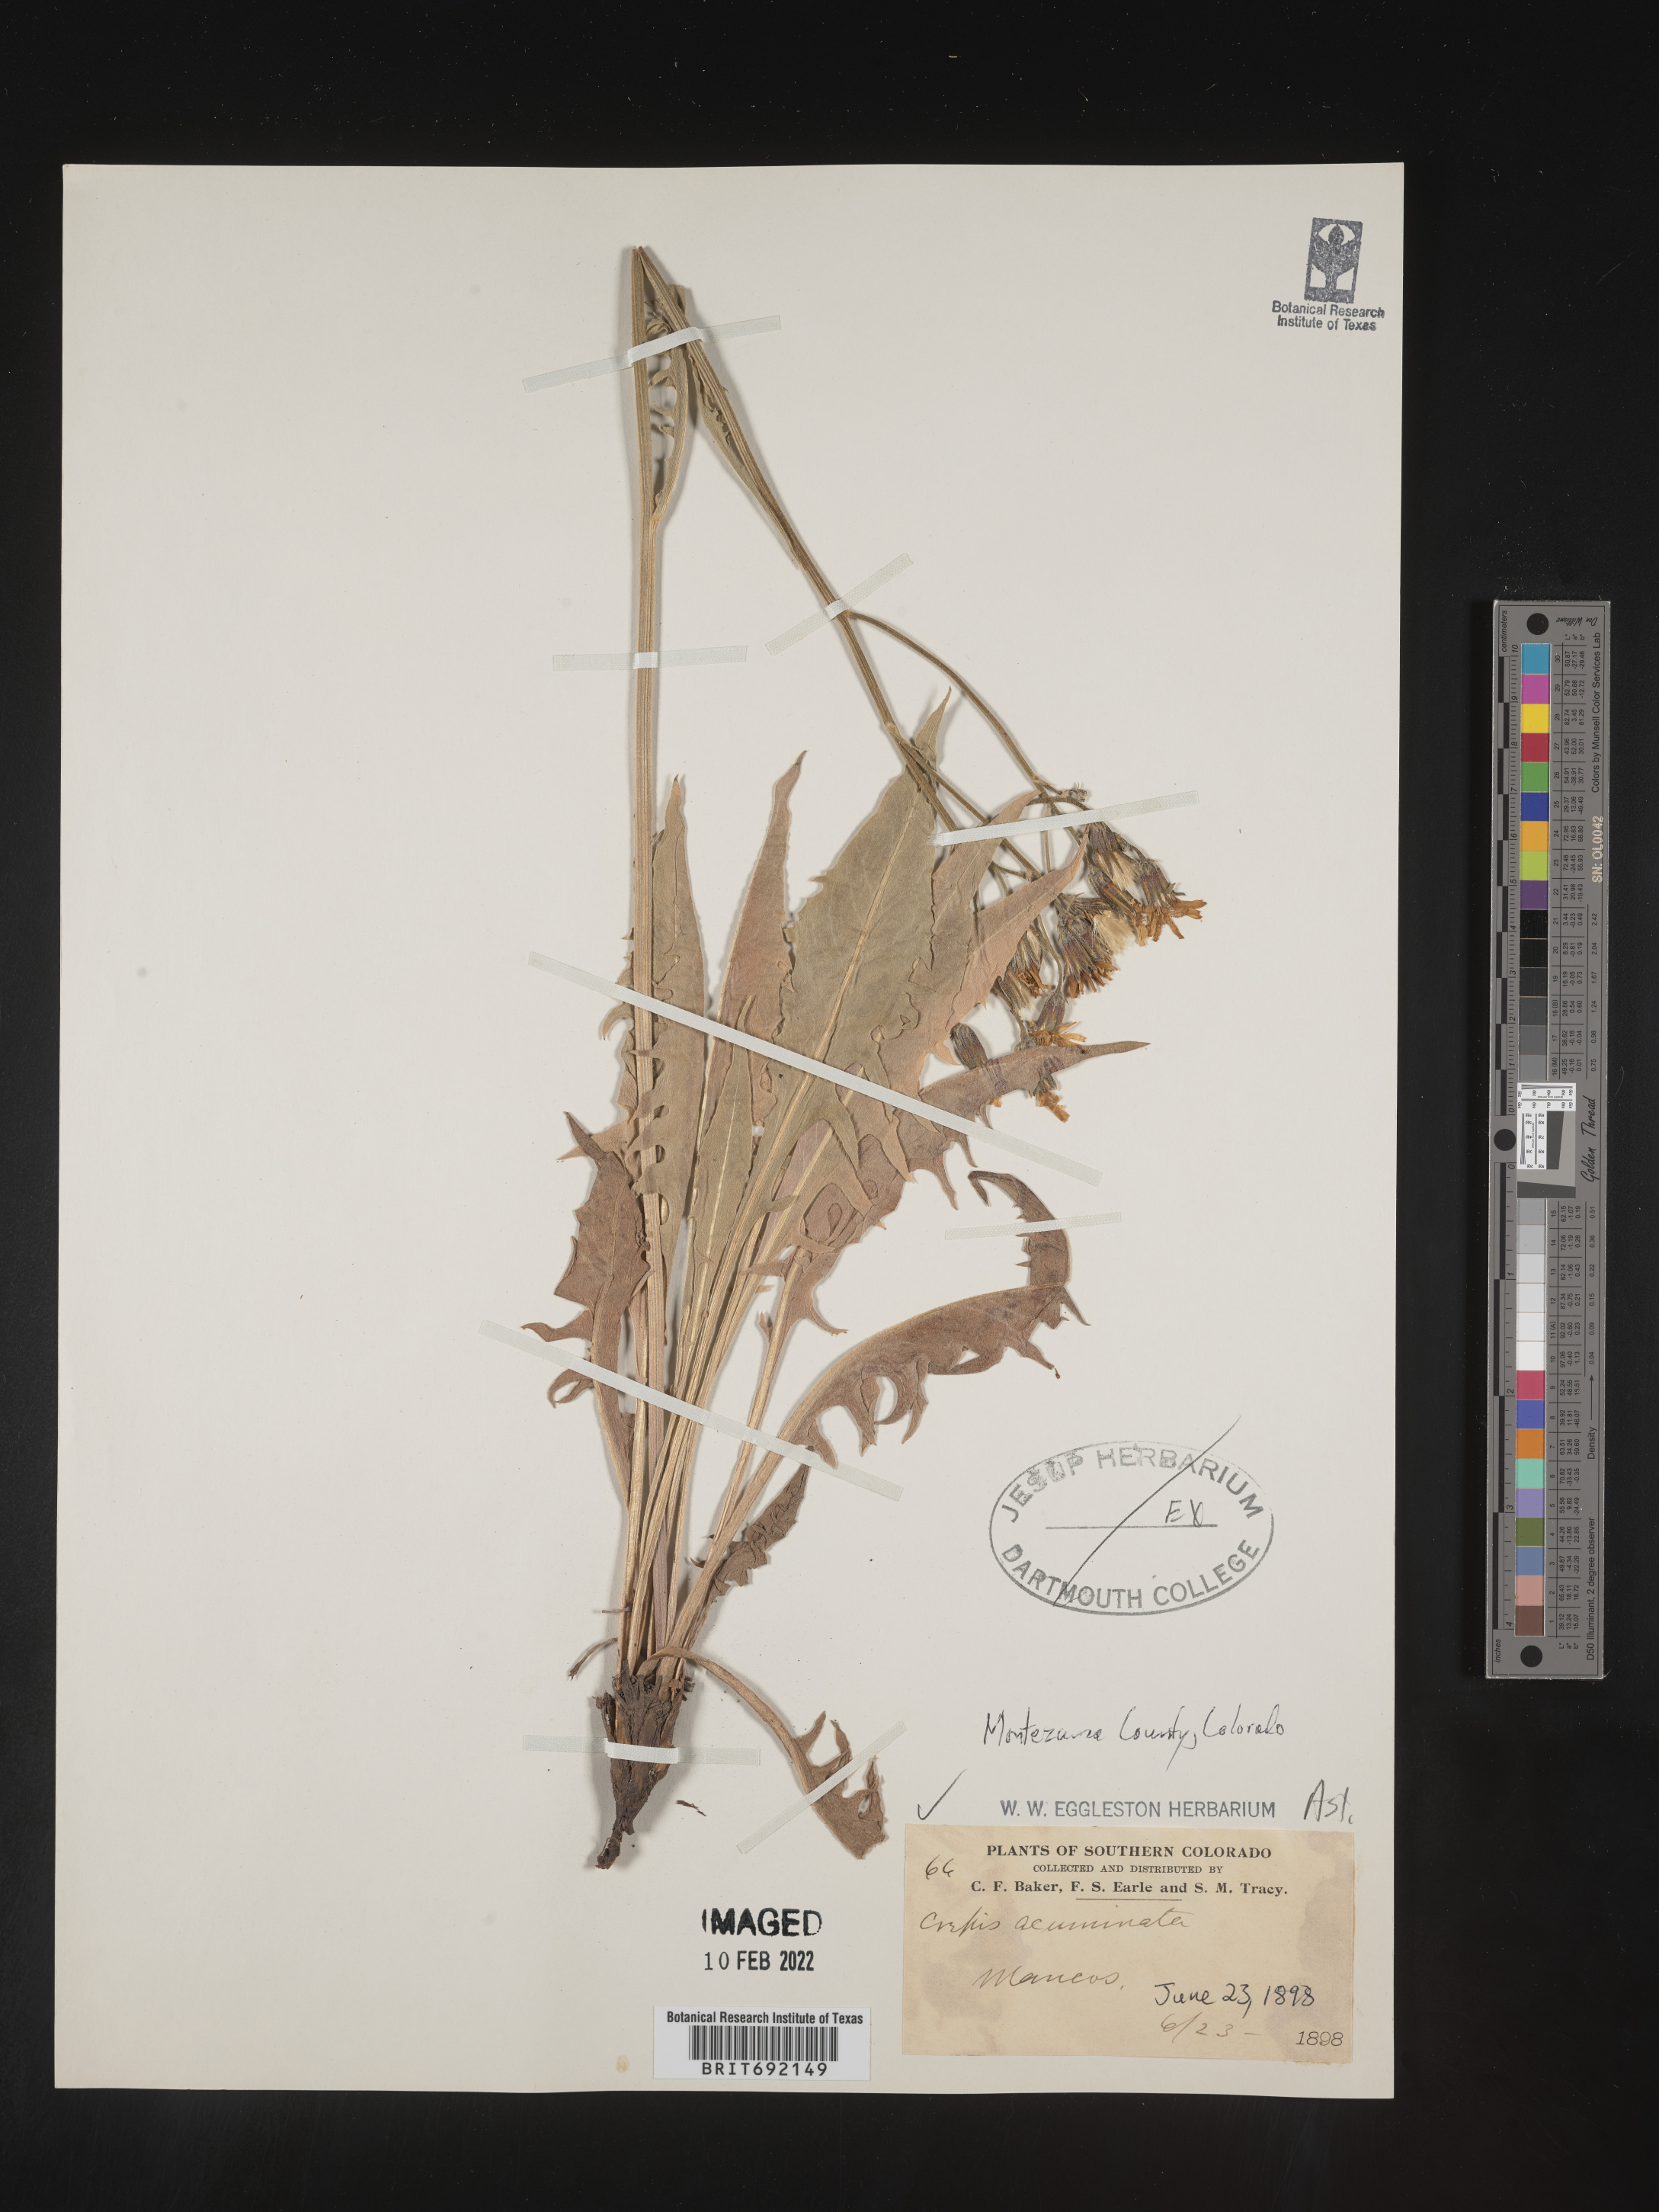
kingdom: Plantae
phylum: Tracheophyta
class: Magnoliopsida
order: Asterales
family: Asteraceae
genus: Crepis
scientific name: Crepis acuminata
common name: Longleaf hawk's-beard
